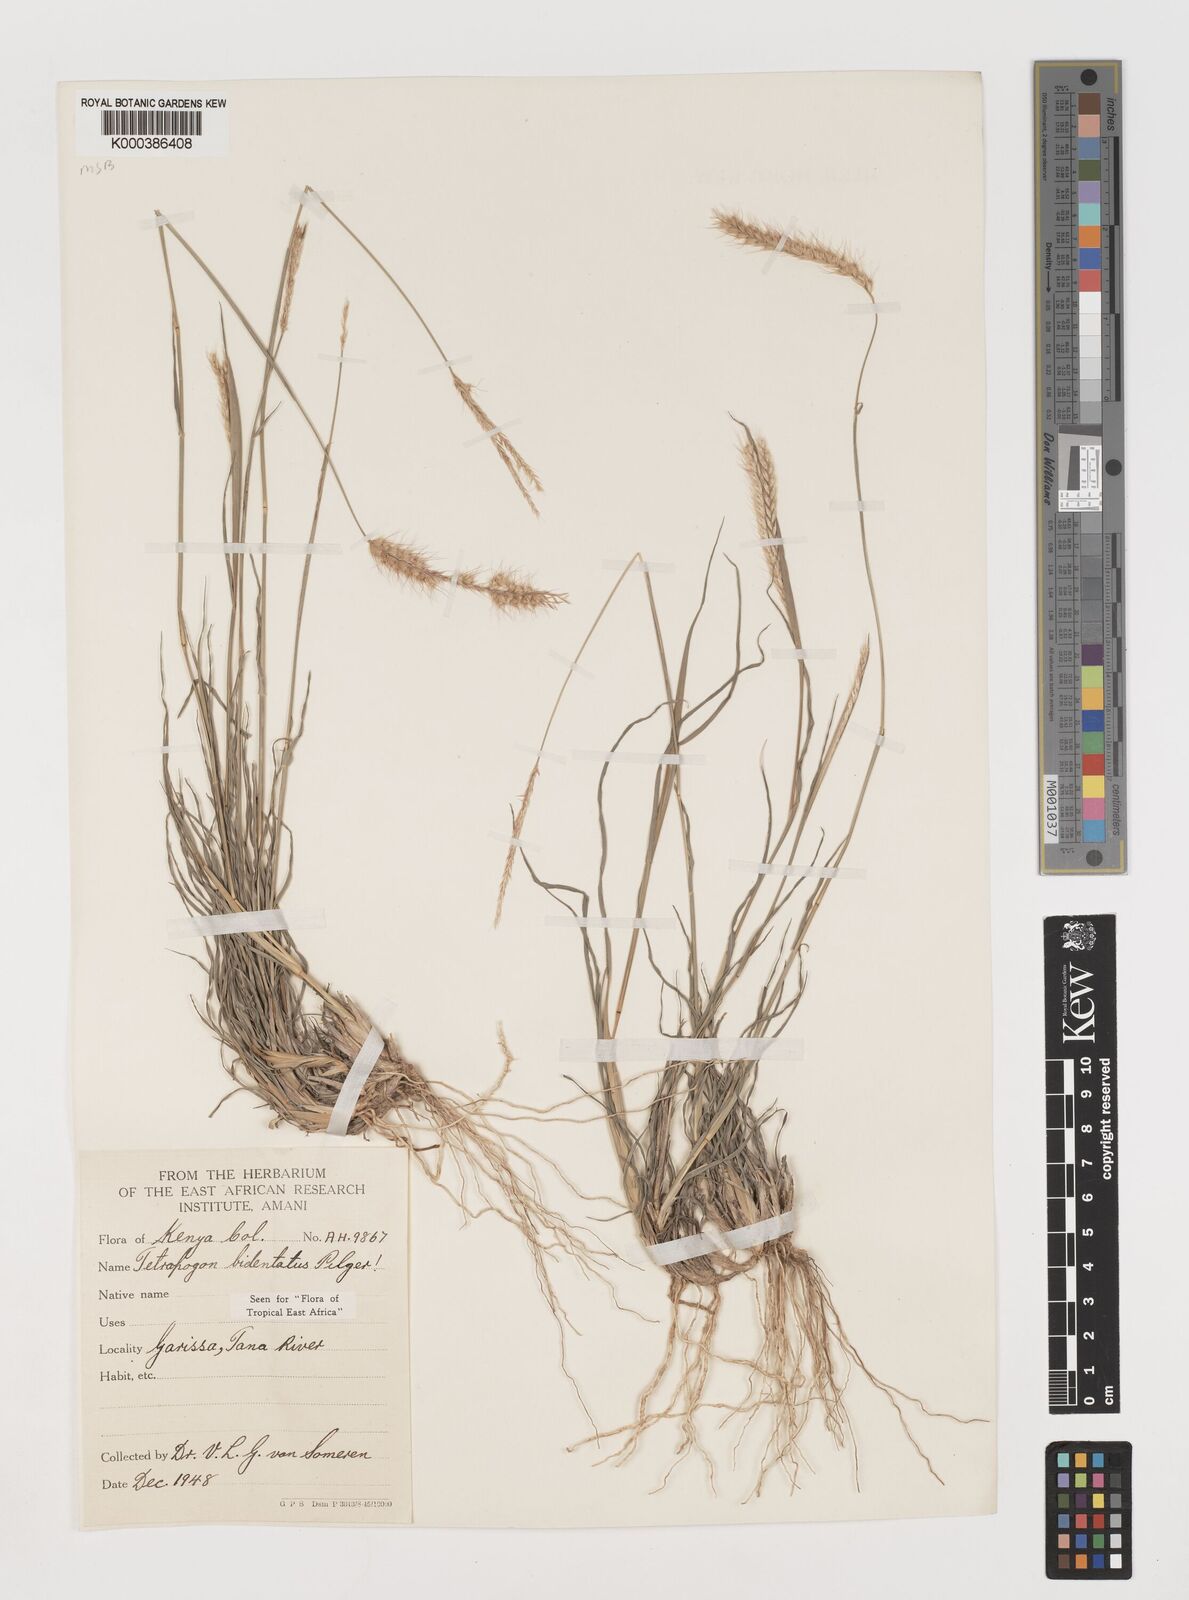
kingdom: Plantae
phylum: Tracheophyta
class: Liliopsida
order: Poales
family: Poaceae
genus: Tetrapogon
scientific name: Tetrapogon bidentatus
